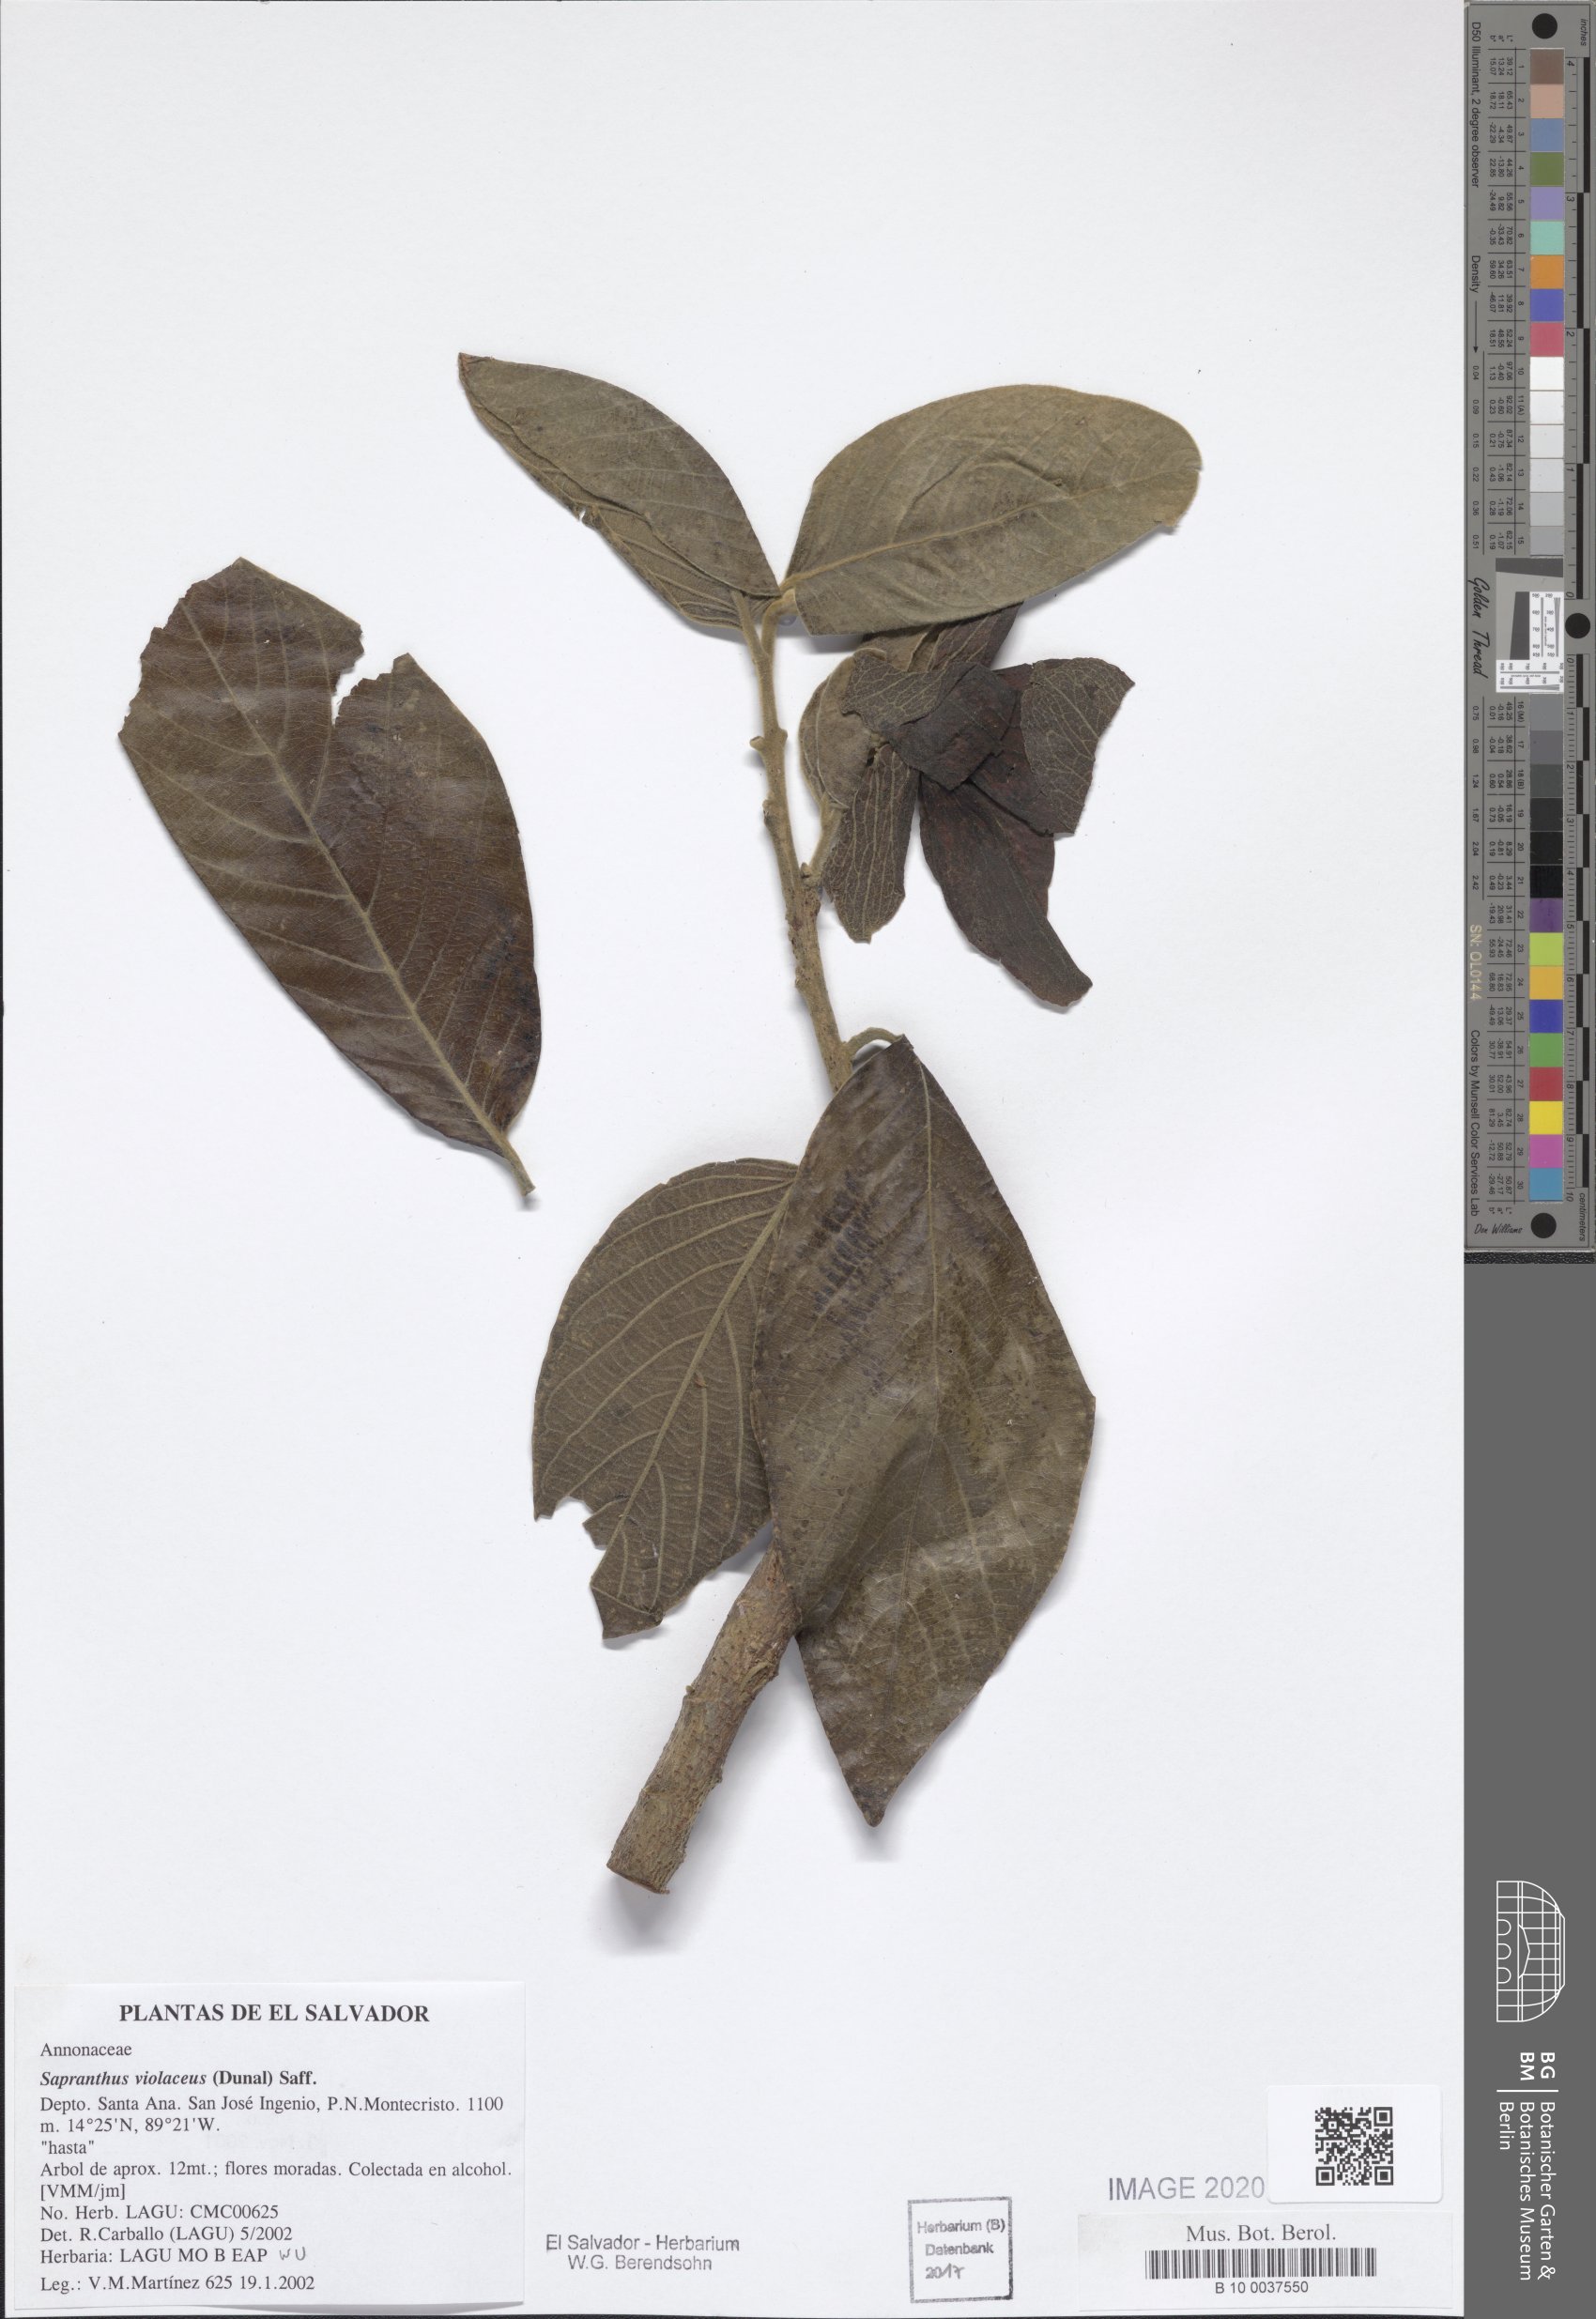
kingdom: Plantae
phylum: Tracheophyta
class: Magnoliopsida
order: Magnoliales
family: Annonaceae
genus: Sapranthus
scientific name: Sapranthus violaceus
